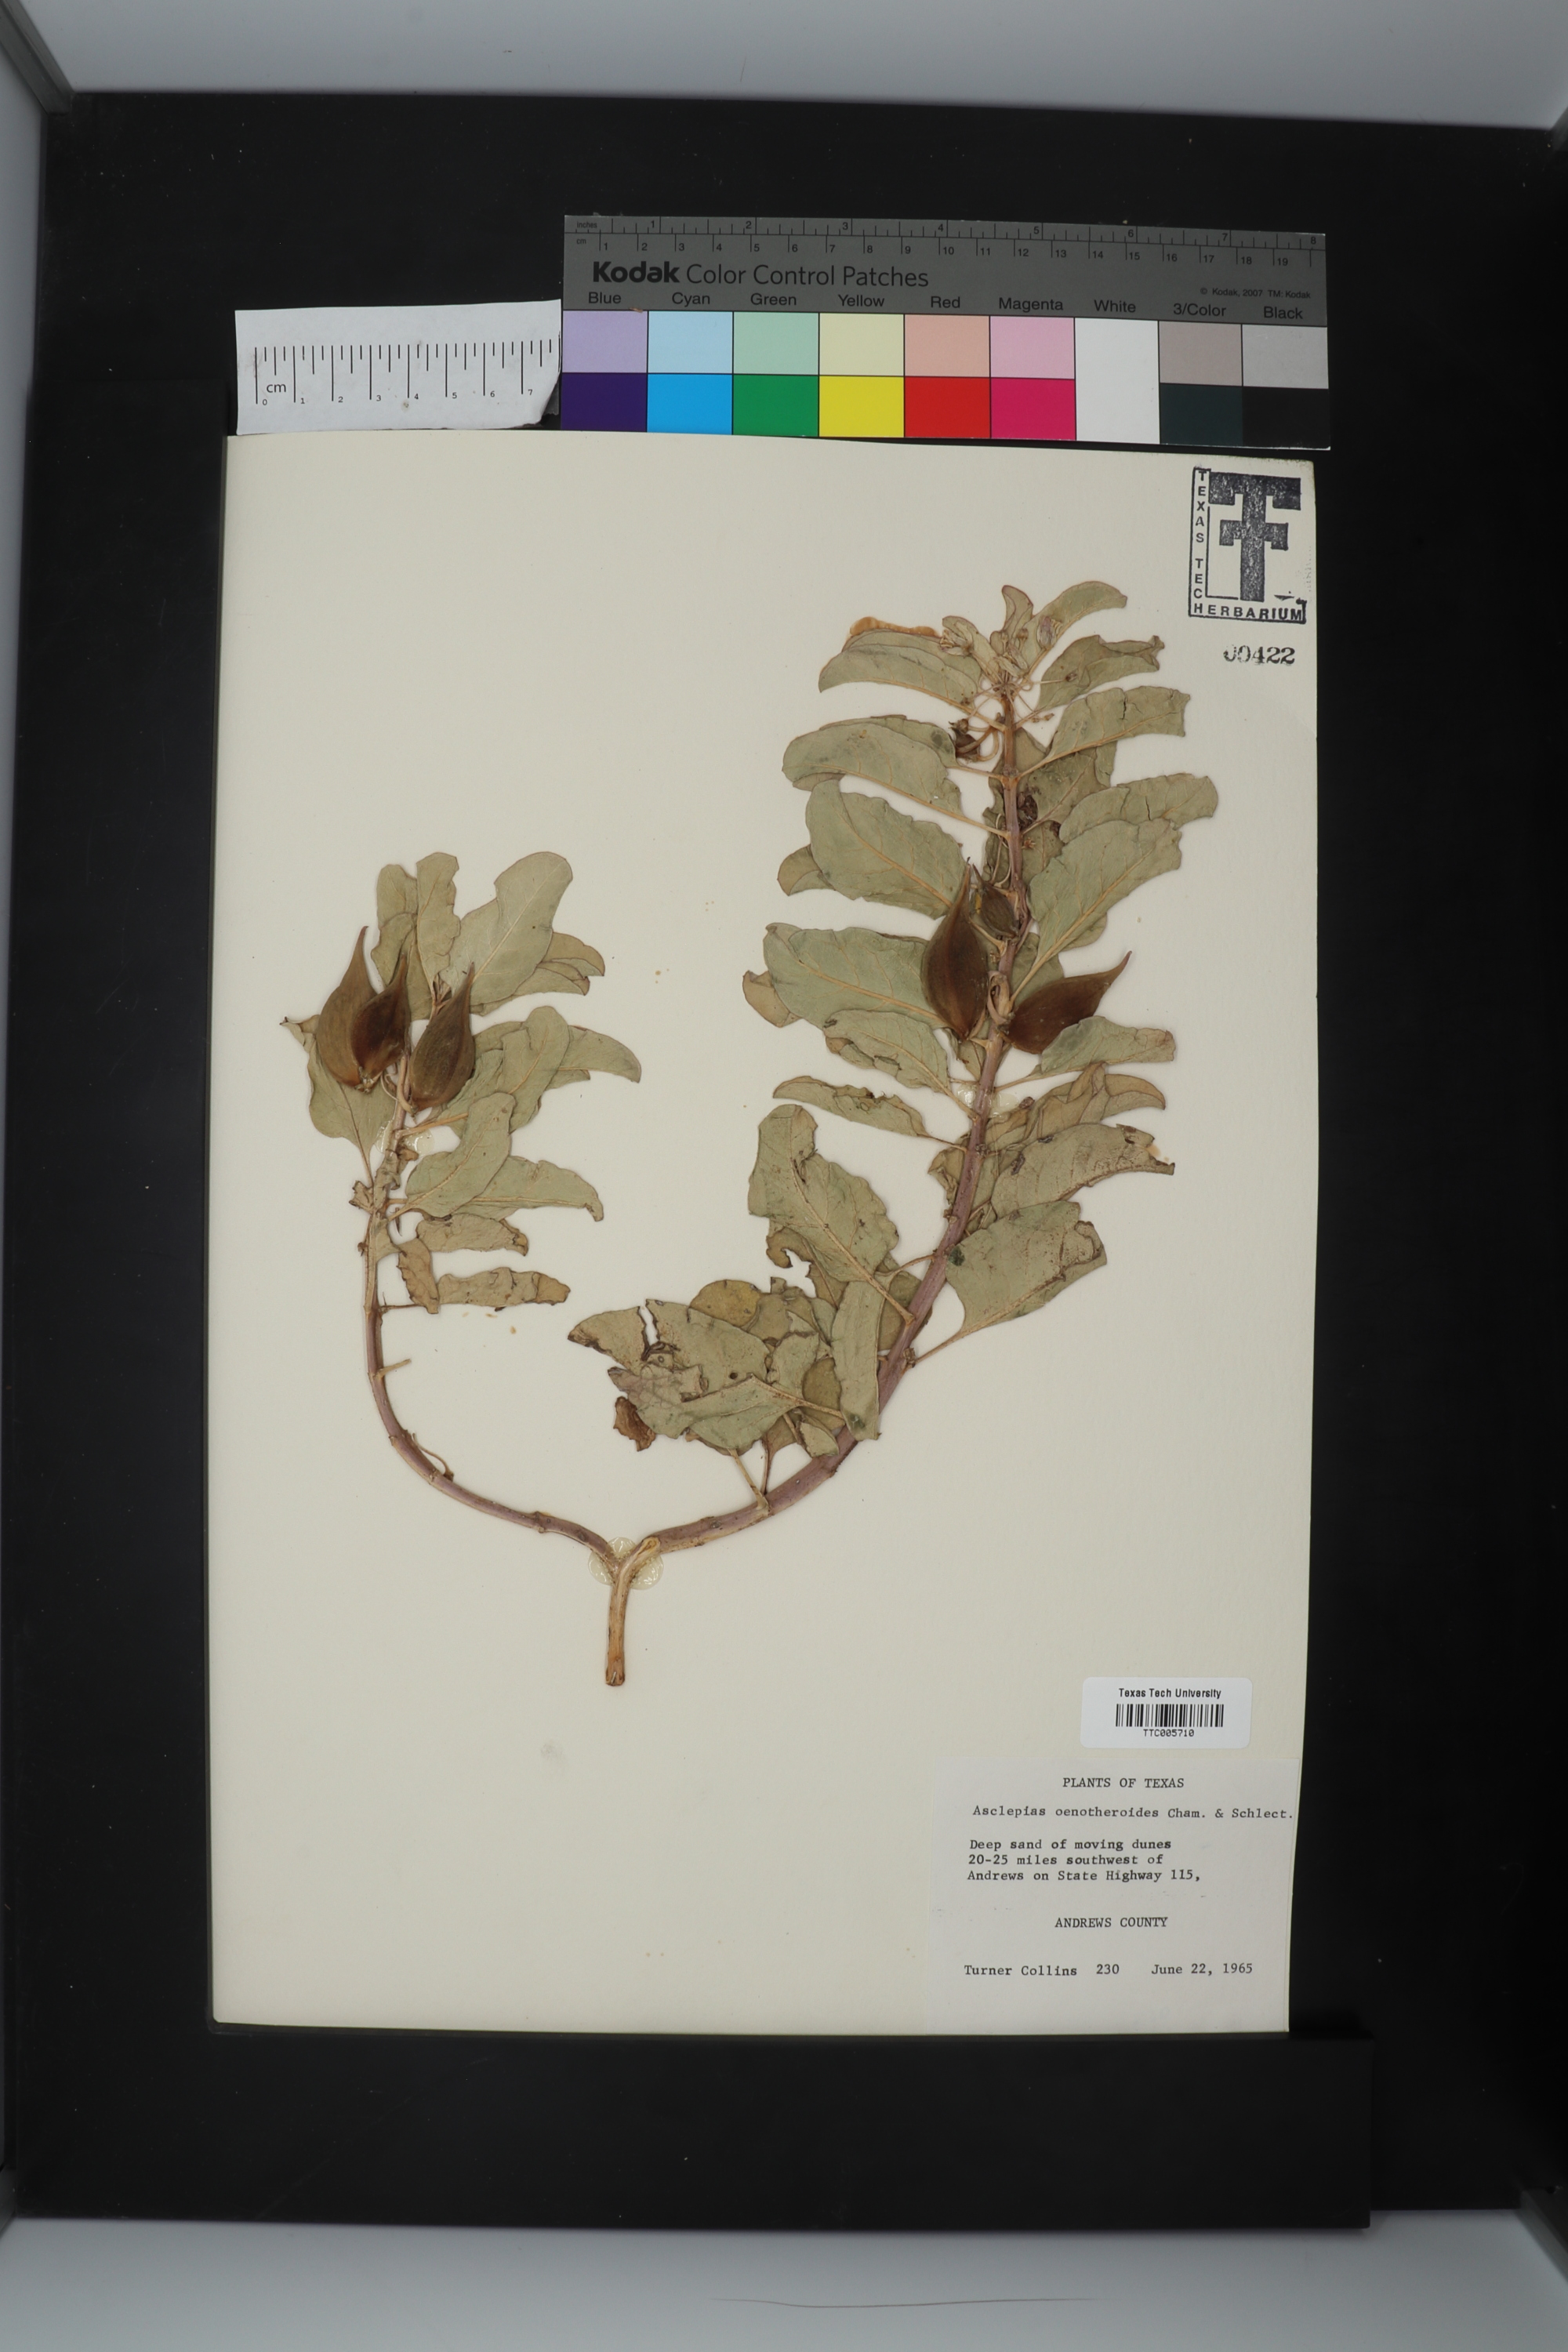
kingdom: Plantae
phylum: Tracheophyta
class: Magnoliopsida
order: Gentianales
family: Apocynaceae
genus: Asclepias
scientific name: Asclepias oenotheroides
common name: Zizotes milkweed
